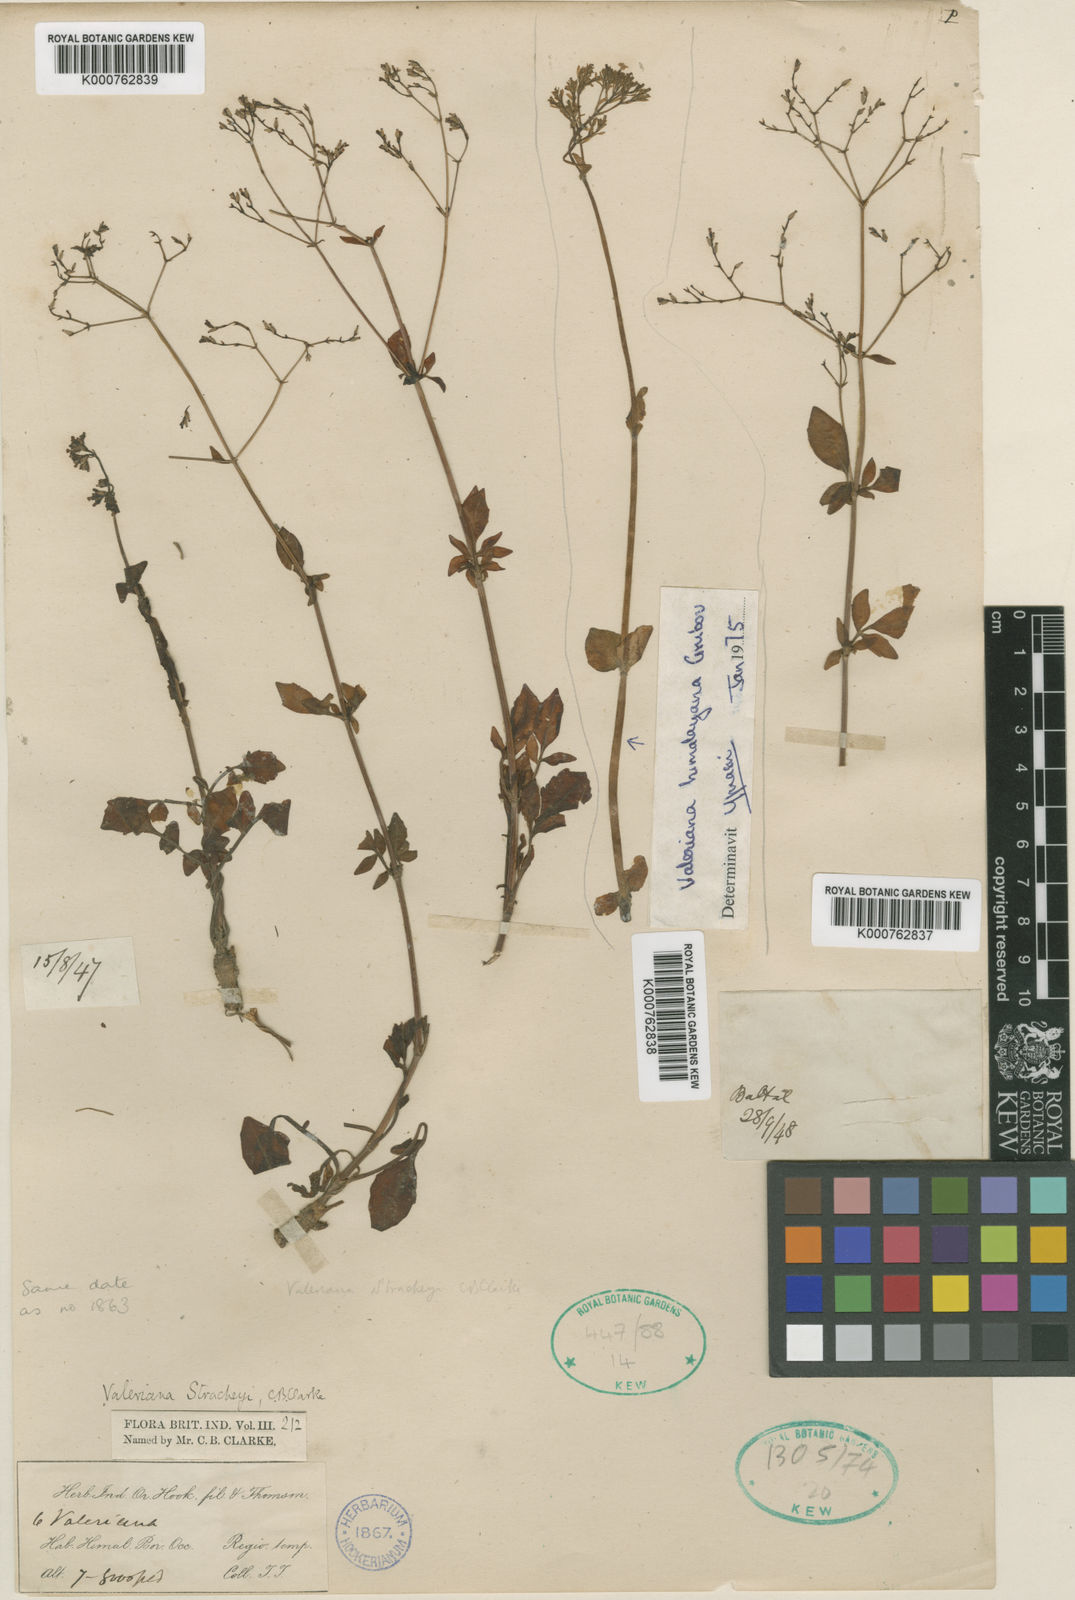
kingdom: Plantae
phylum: Tracheophyta
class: Magnoliopsida
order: Dipsacales
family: Caprifoliaceae
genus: Valeriana
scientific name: Valeriana stracheyi
